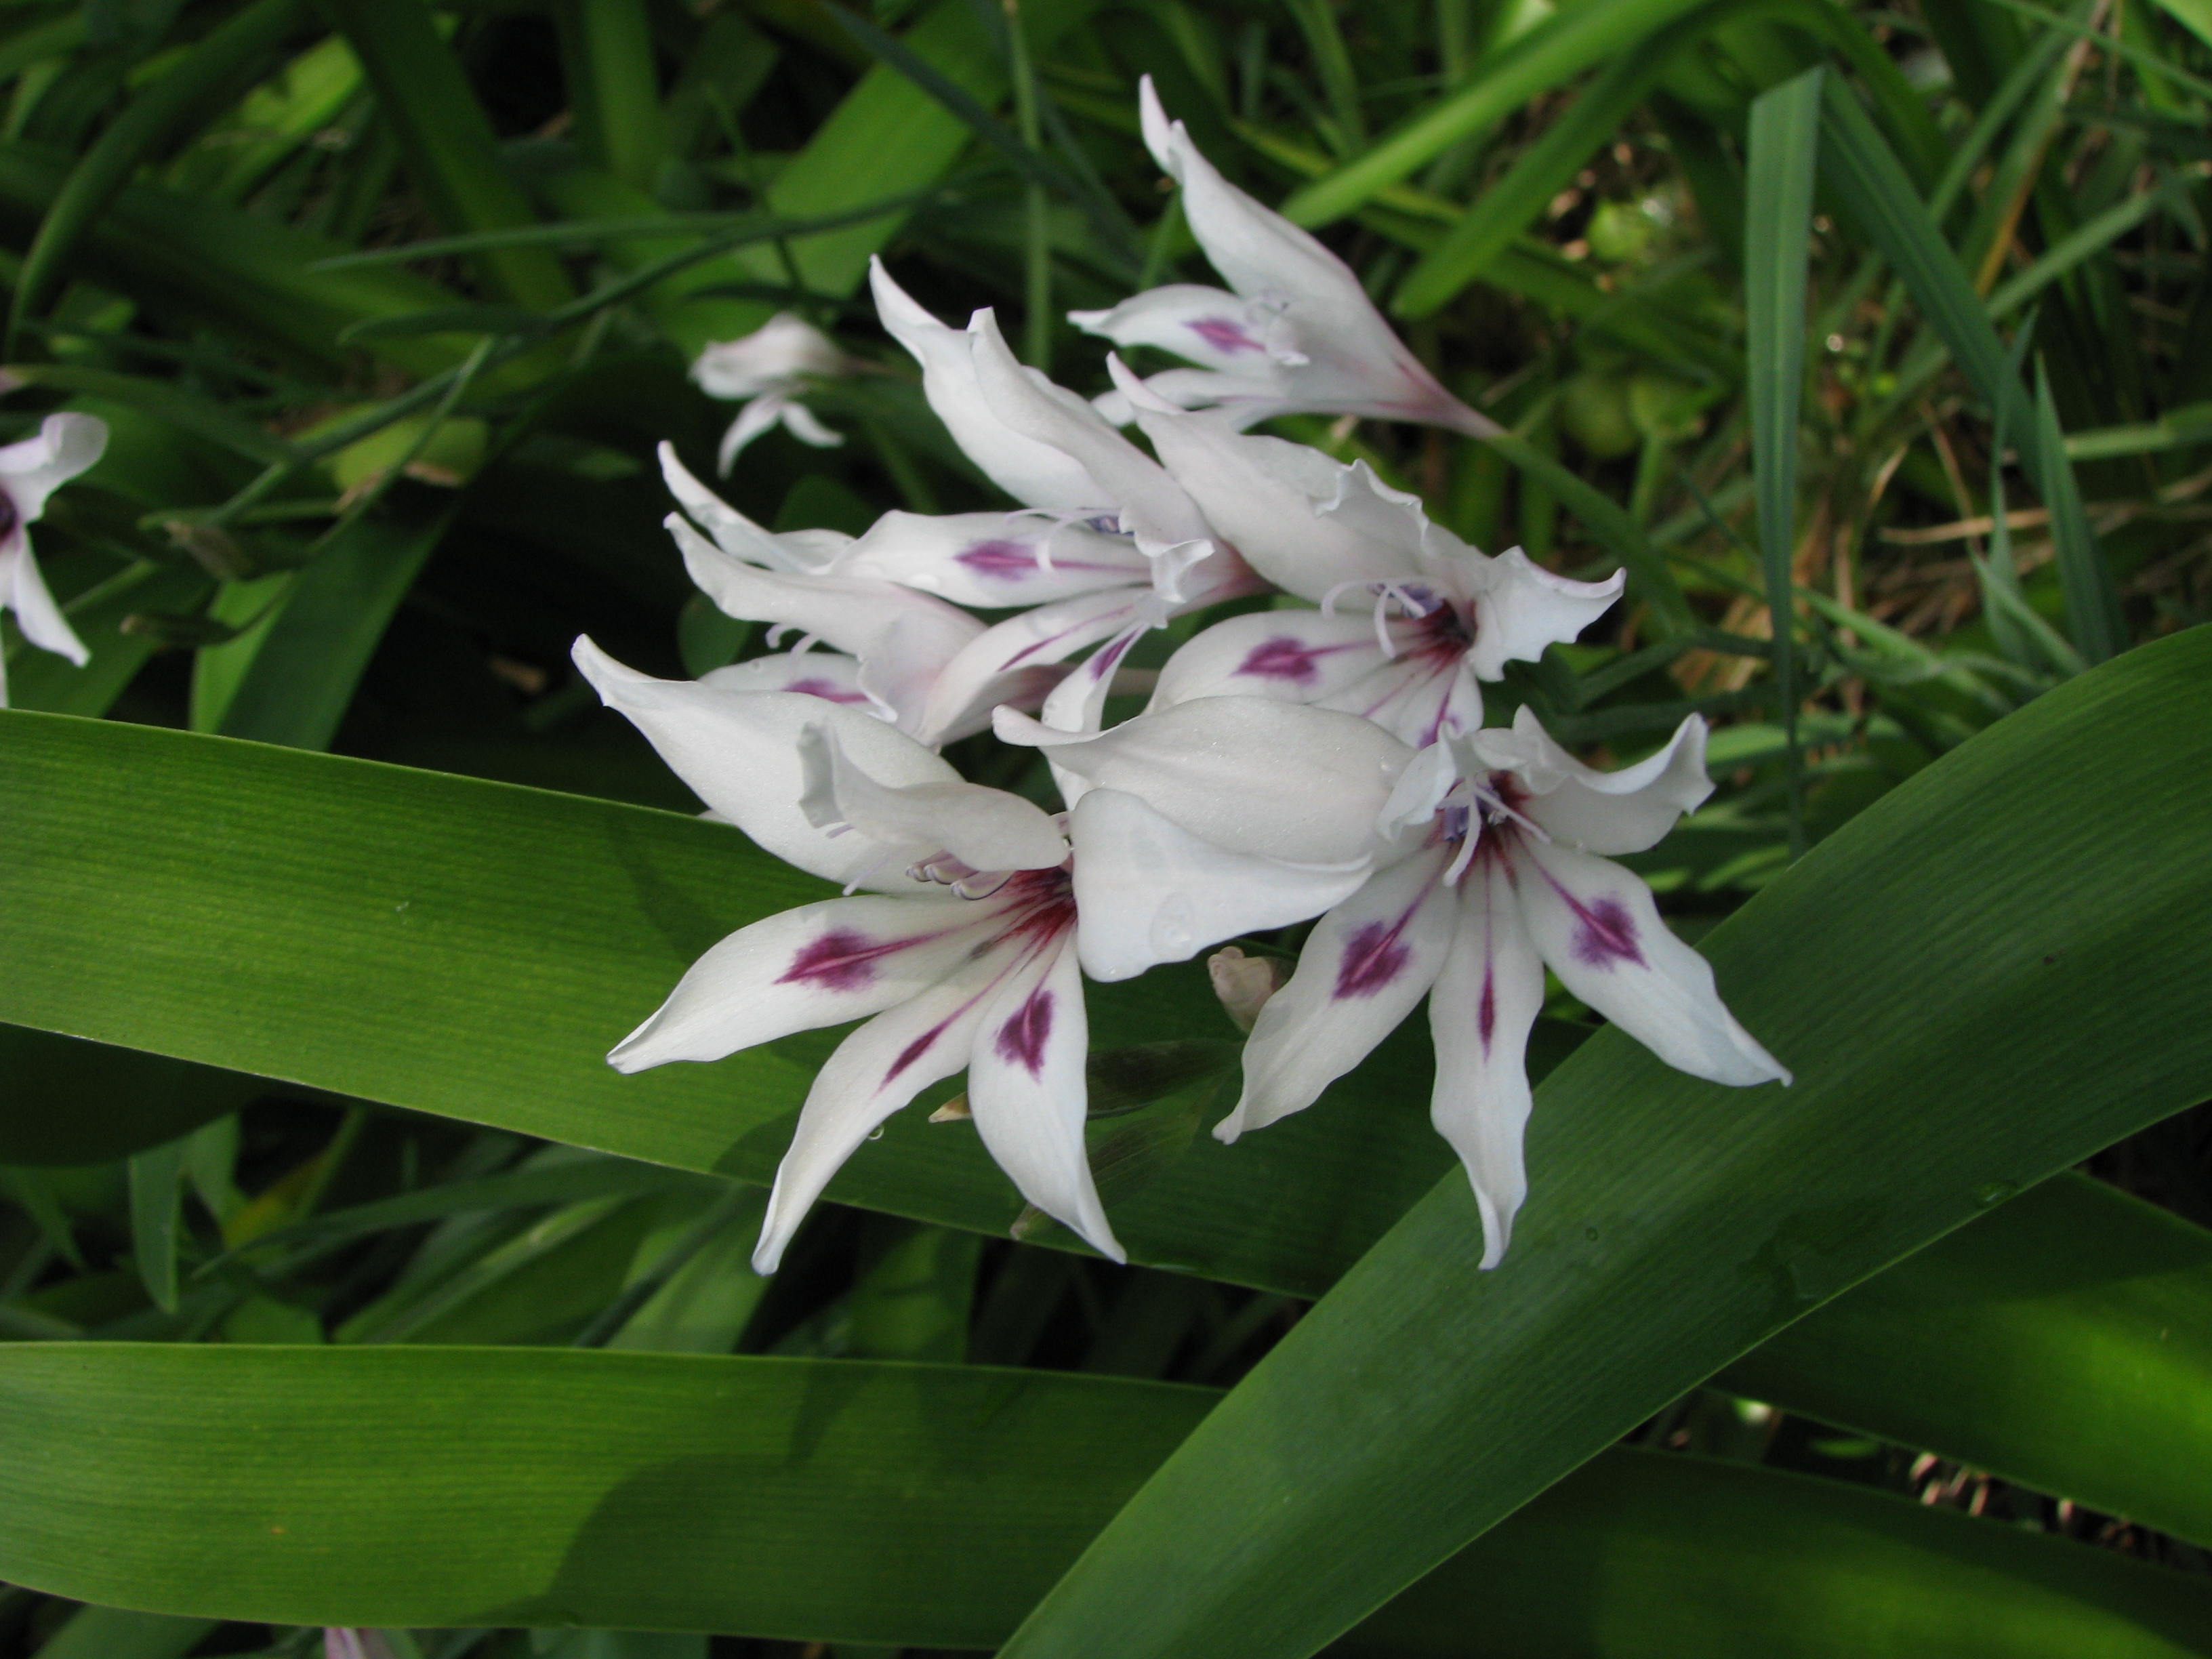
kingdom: Plantae
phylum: Tracheophyta
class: Liliopsida
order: Asparagales
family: Iridaceae
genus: Gladiolus
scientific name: Gladiolus carneus
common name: Painted-lady
